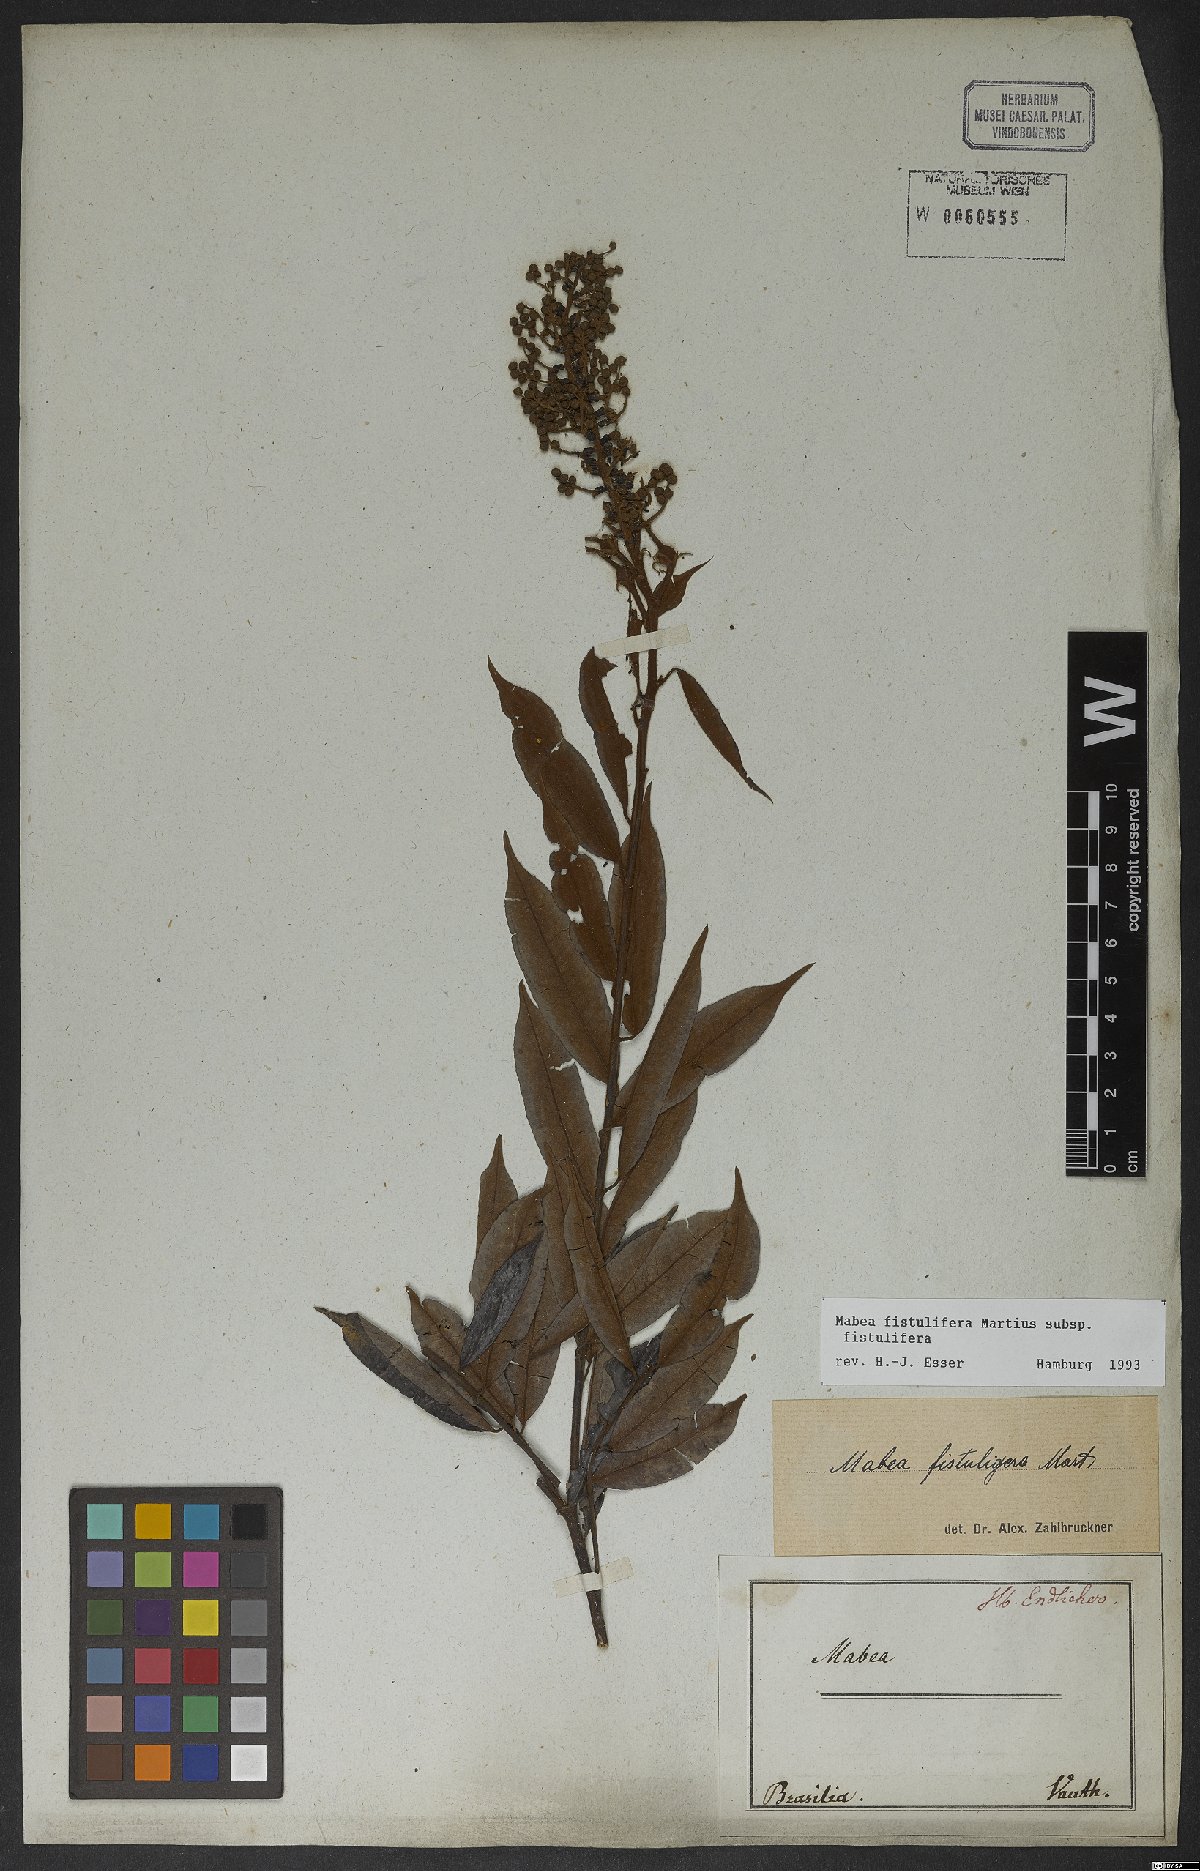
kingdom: Plantae
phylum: Tracheophyta
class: Magnoliopsida
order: Malpighiales
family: Euphorbiaceae
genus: Mabea
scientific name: Mabea fistulifera
